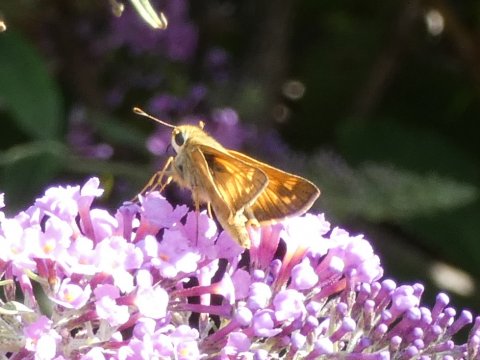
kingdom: Animalia
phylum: Arthropoda
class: Insecta
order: Lepidoptera
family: Hesperiidae
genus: Atalopedes
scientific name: Atalopedes campestris
